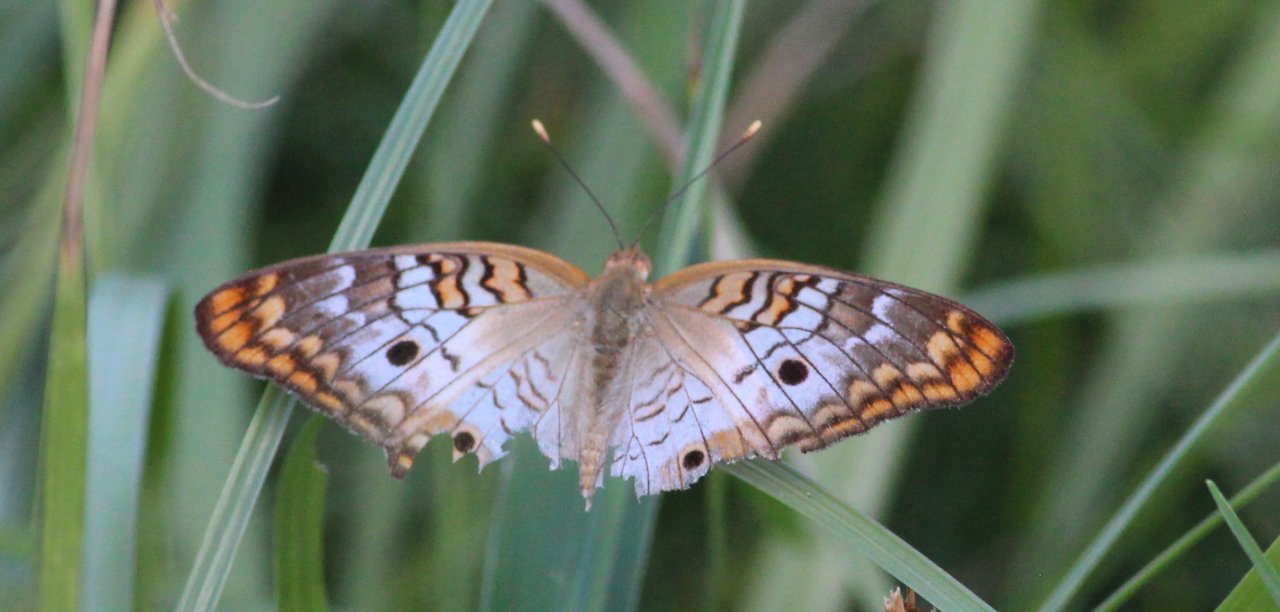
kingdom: Animalia
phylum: Arthropoda
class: Insecta
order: Lepidoptera
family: Nymphalidae
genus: Anartia
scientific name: Anartia jatrophae
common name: White Peacock
